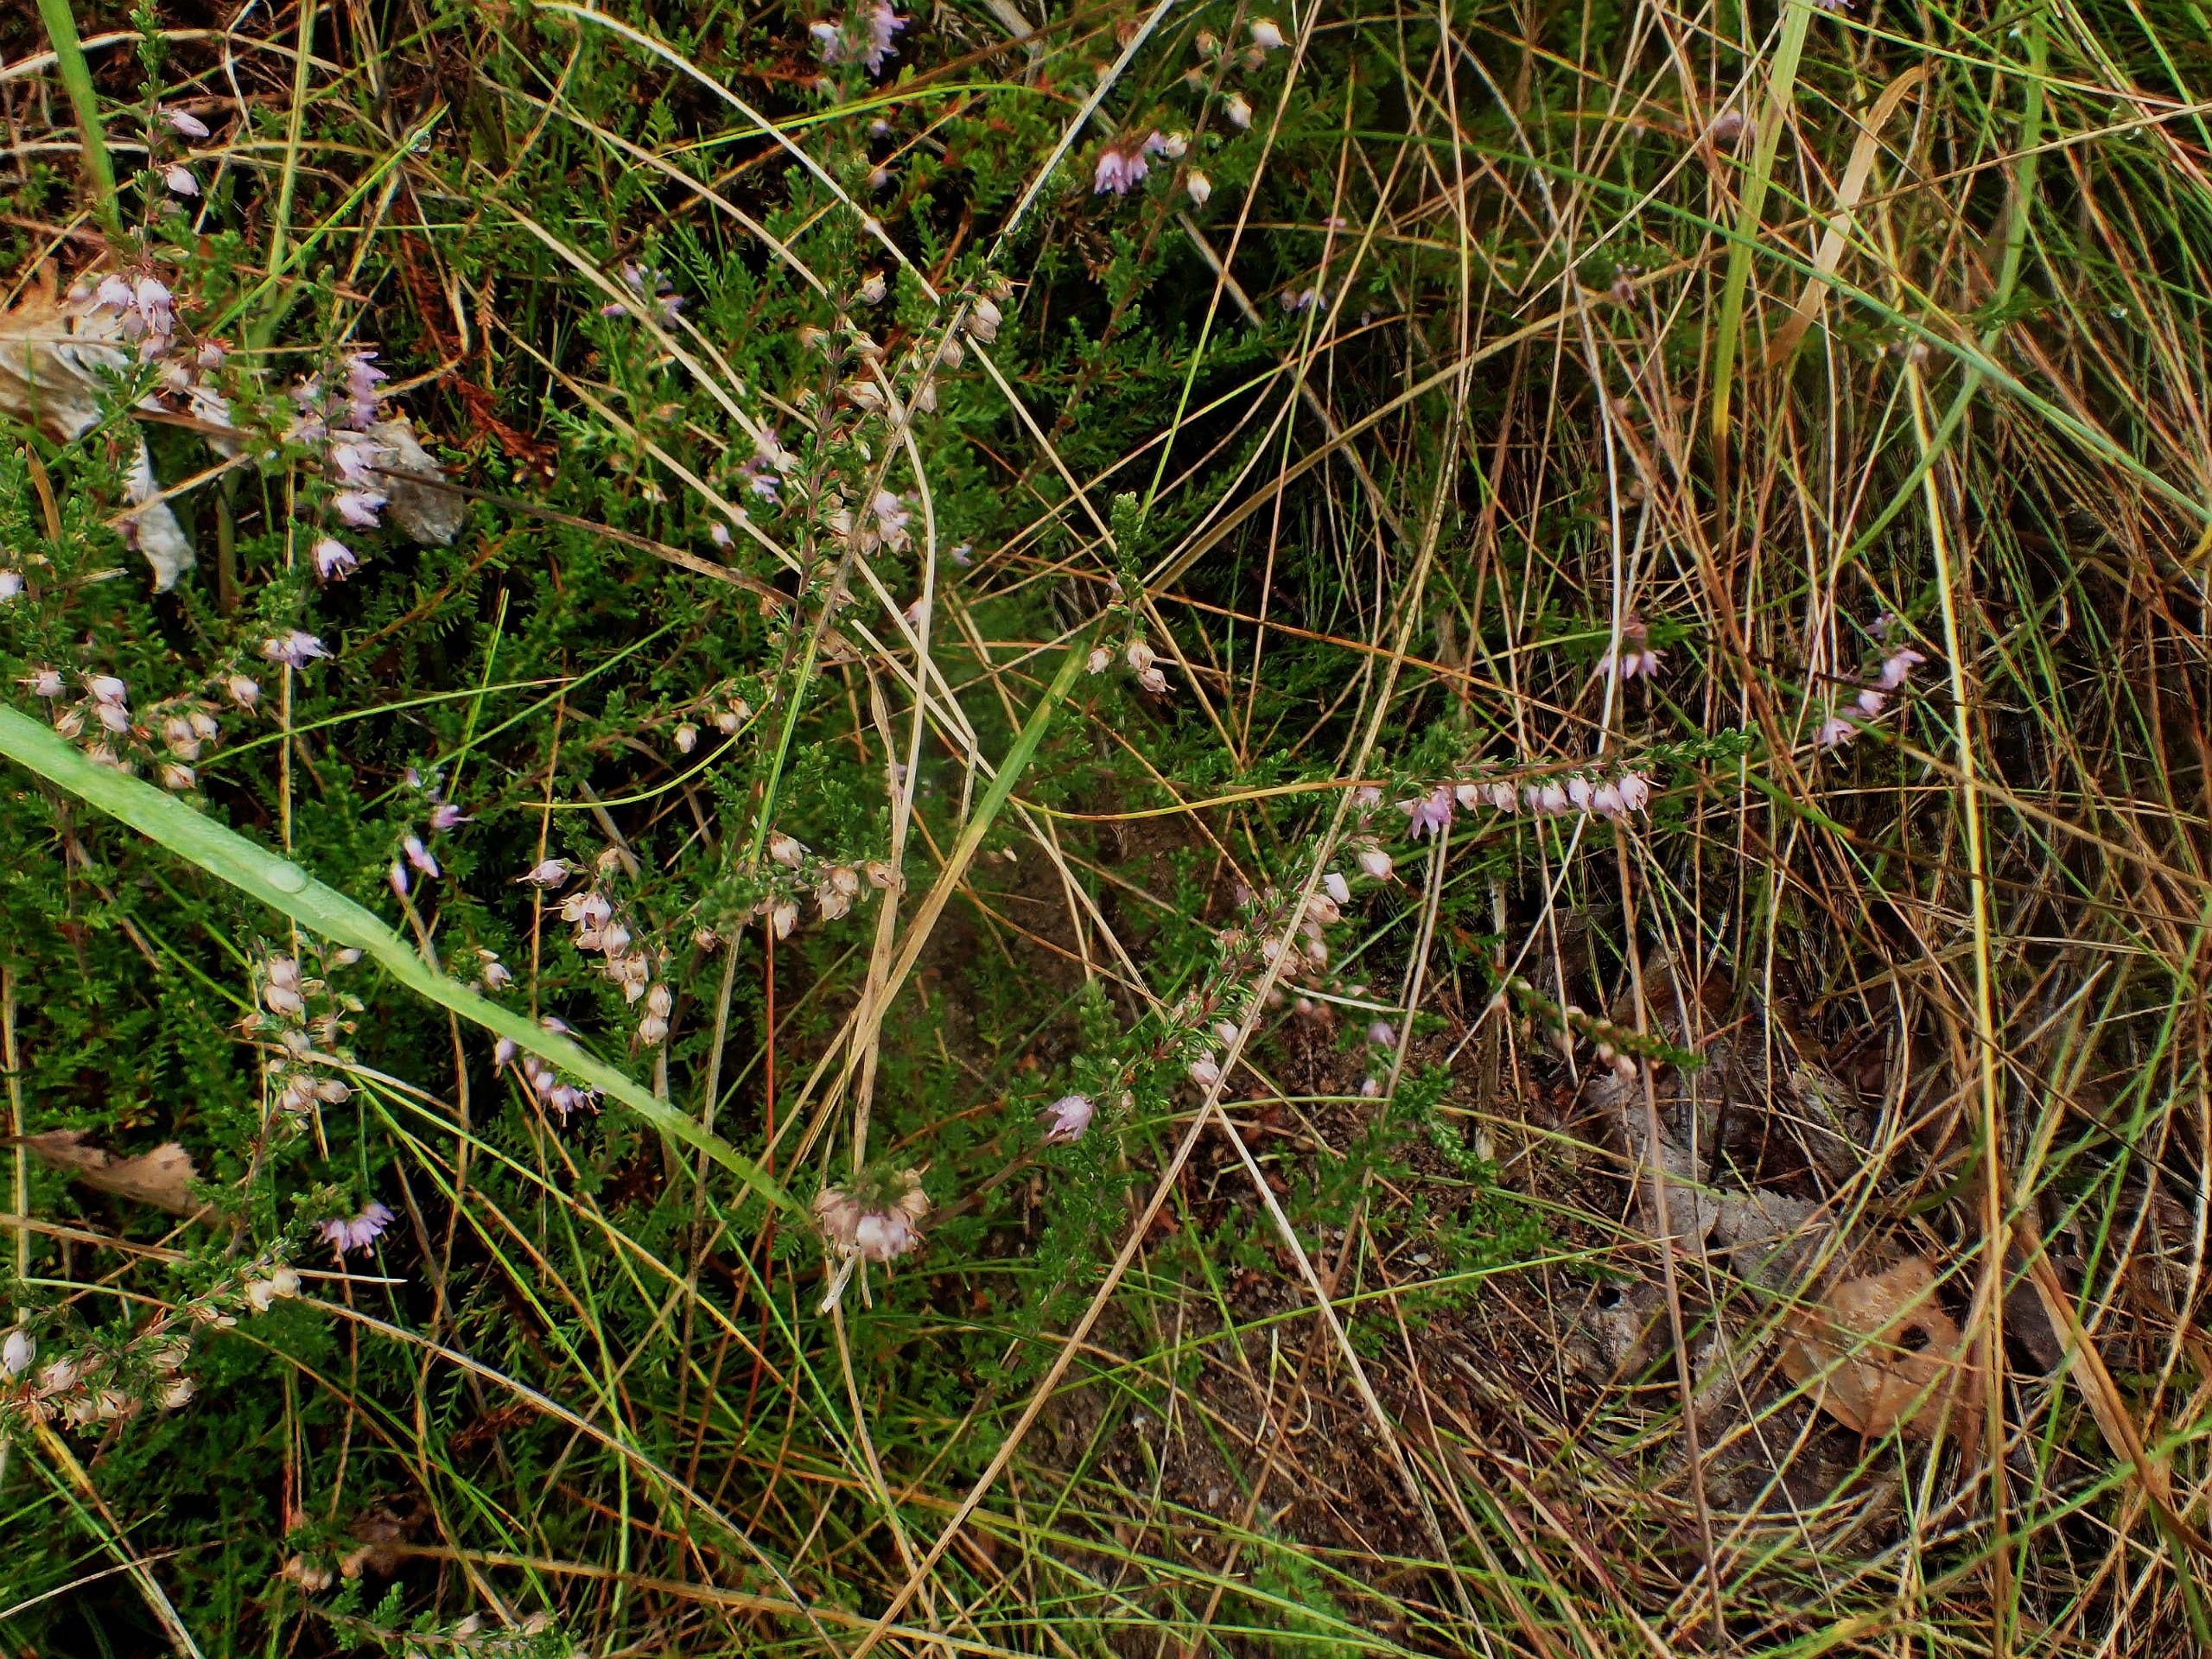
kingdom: Plantae
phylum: Tracheophyta
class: Magnoliopsida
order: Ericales
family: Ericaceae
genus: Calluna
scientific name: Calluna vulgaris
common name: Hedelyng
